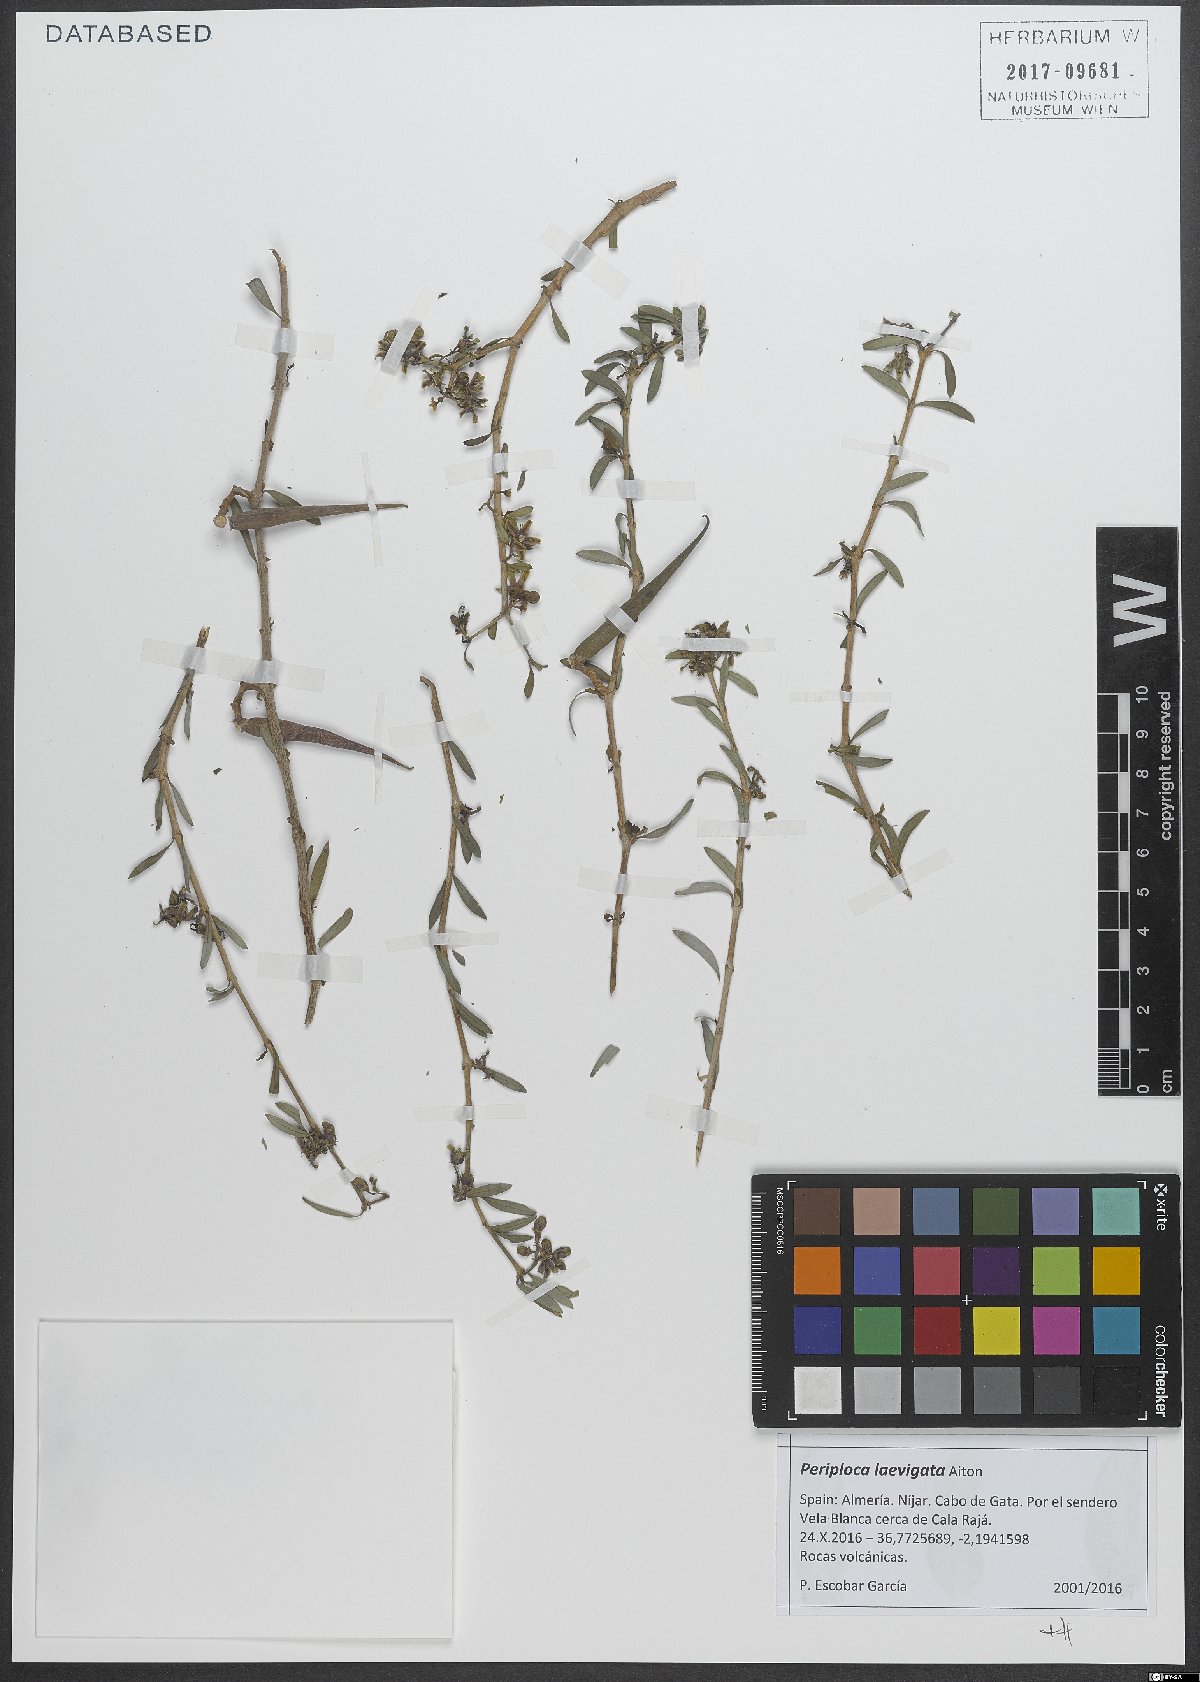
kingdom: Plantae
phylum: Tracheophyta
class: Magnoliopsida
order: Gentianales
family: Apocynaceae
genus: Periploca
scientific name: Periploca laevigata
